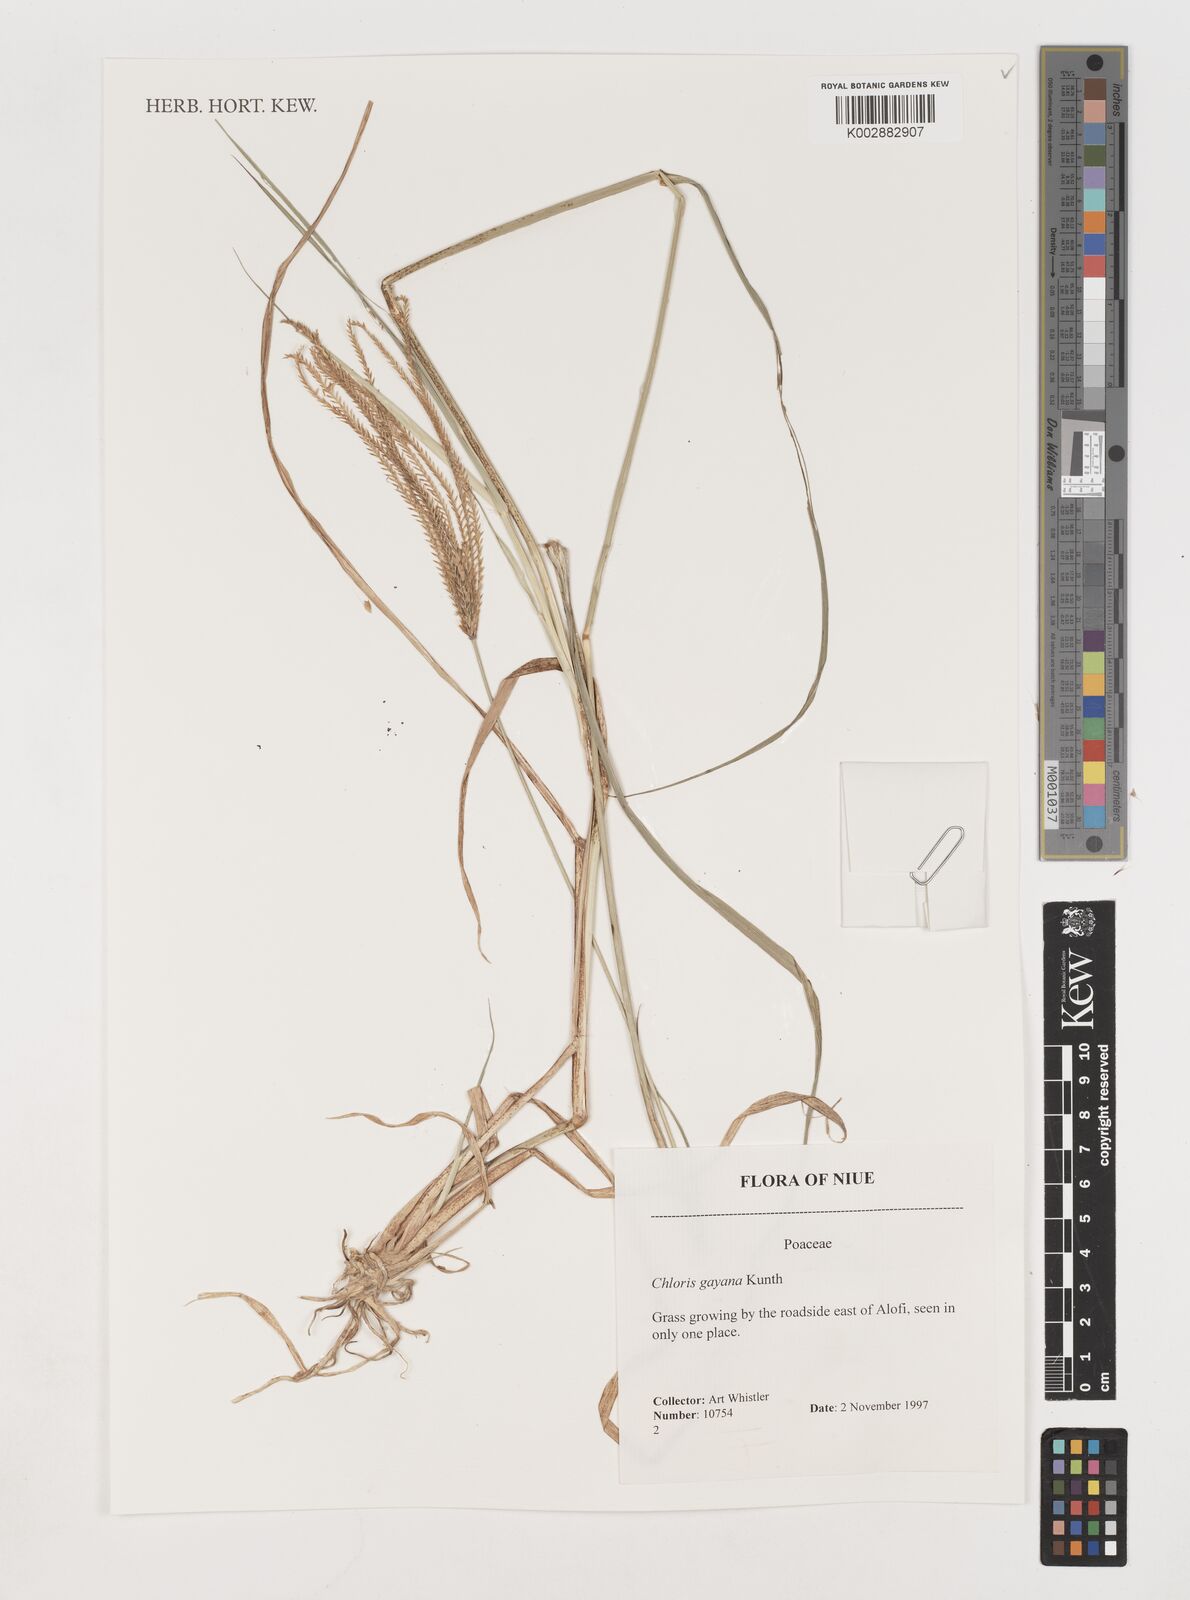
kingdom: Plantae
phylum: Tracheophyta
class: Liliopsida
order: Poales
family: Poaceae
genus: Chloris
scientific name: Chloris gayana
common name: Rhodes grass
